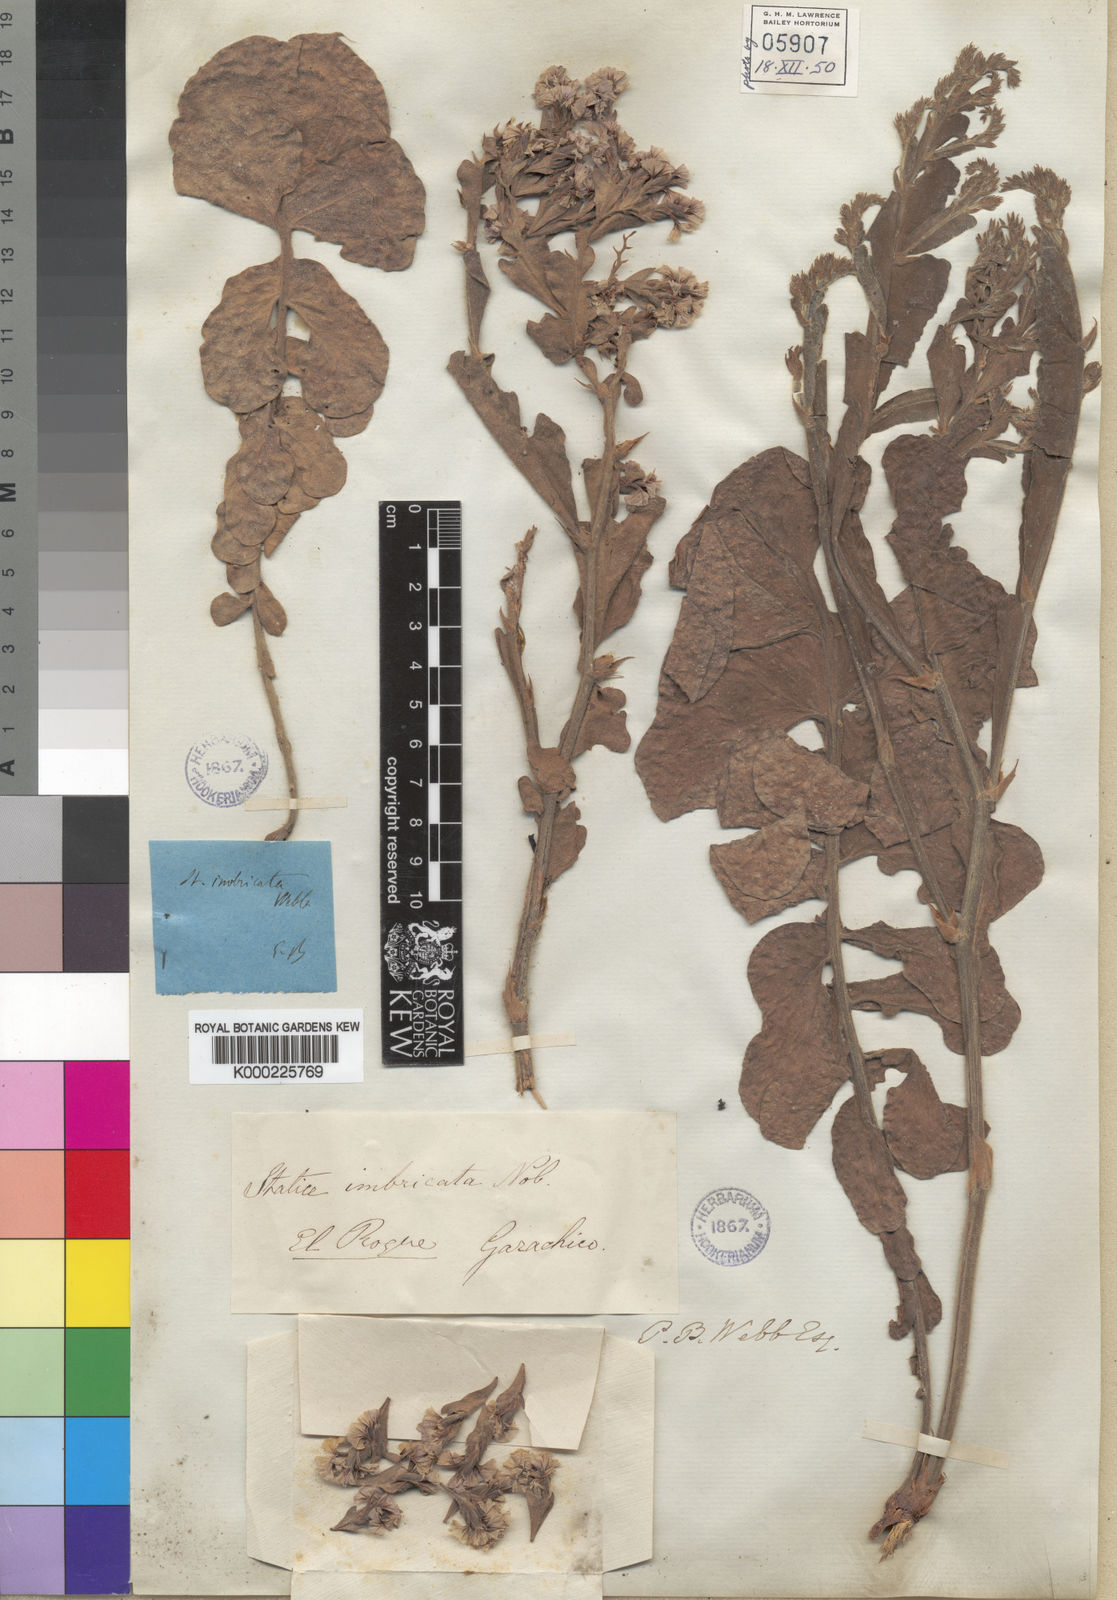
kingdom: Plantae
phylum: Tracheophyta
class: Magnoliopsida
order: Caryophyllales
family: Plumbaginaceae
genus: Limonium
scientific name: Limonium imbricatum
